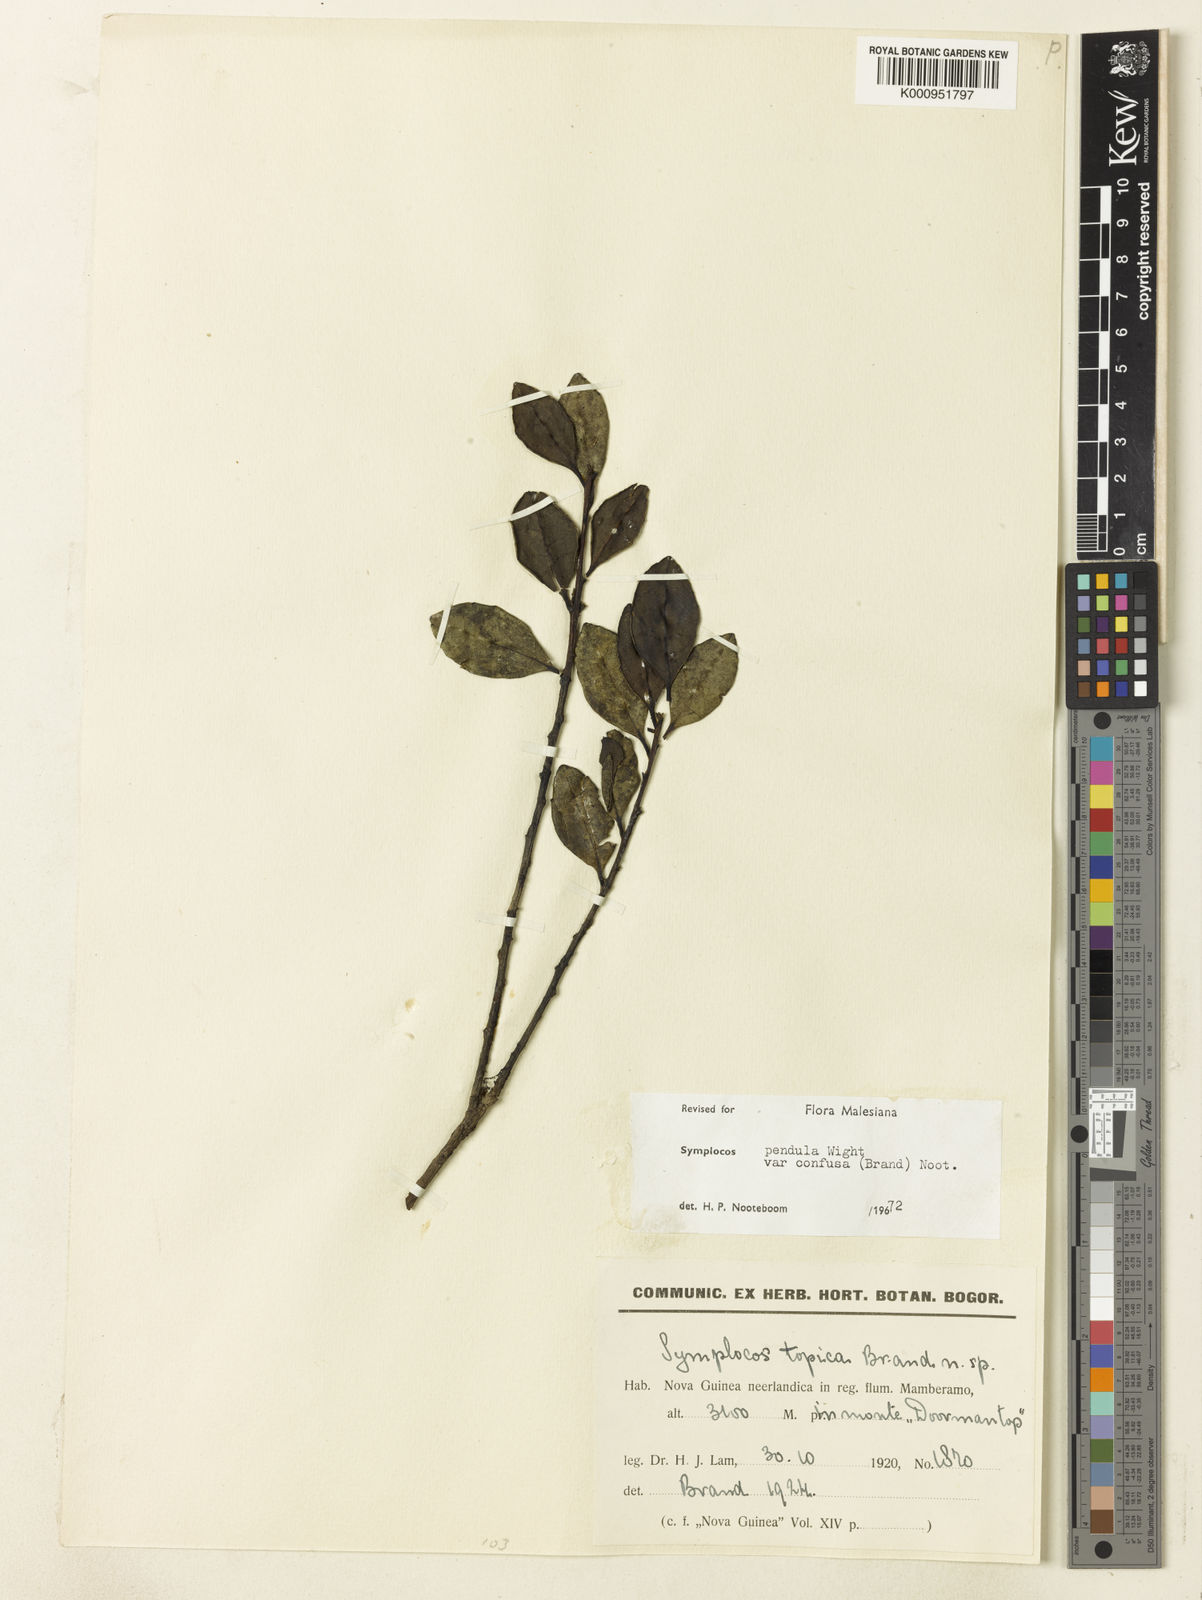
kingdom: Plantae
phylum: Tracheophyta
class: Magnoliopsida
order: Ericales
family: Symplocaceae
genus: Symplocos
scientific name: Symplocos pendula
